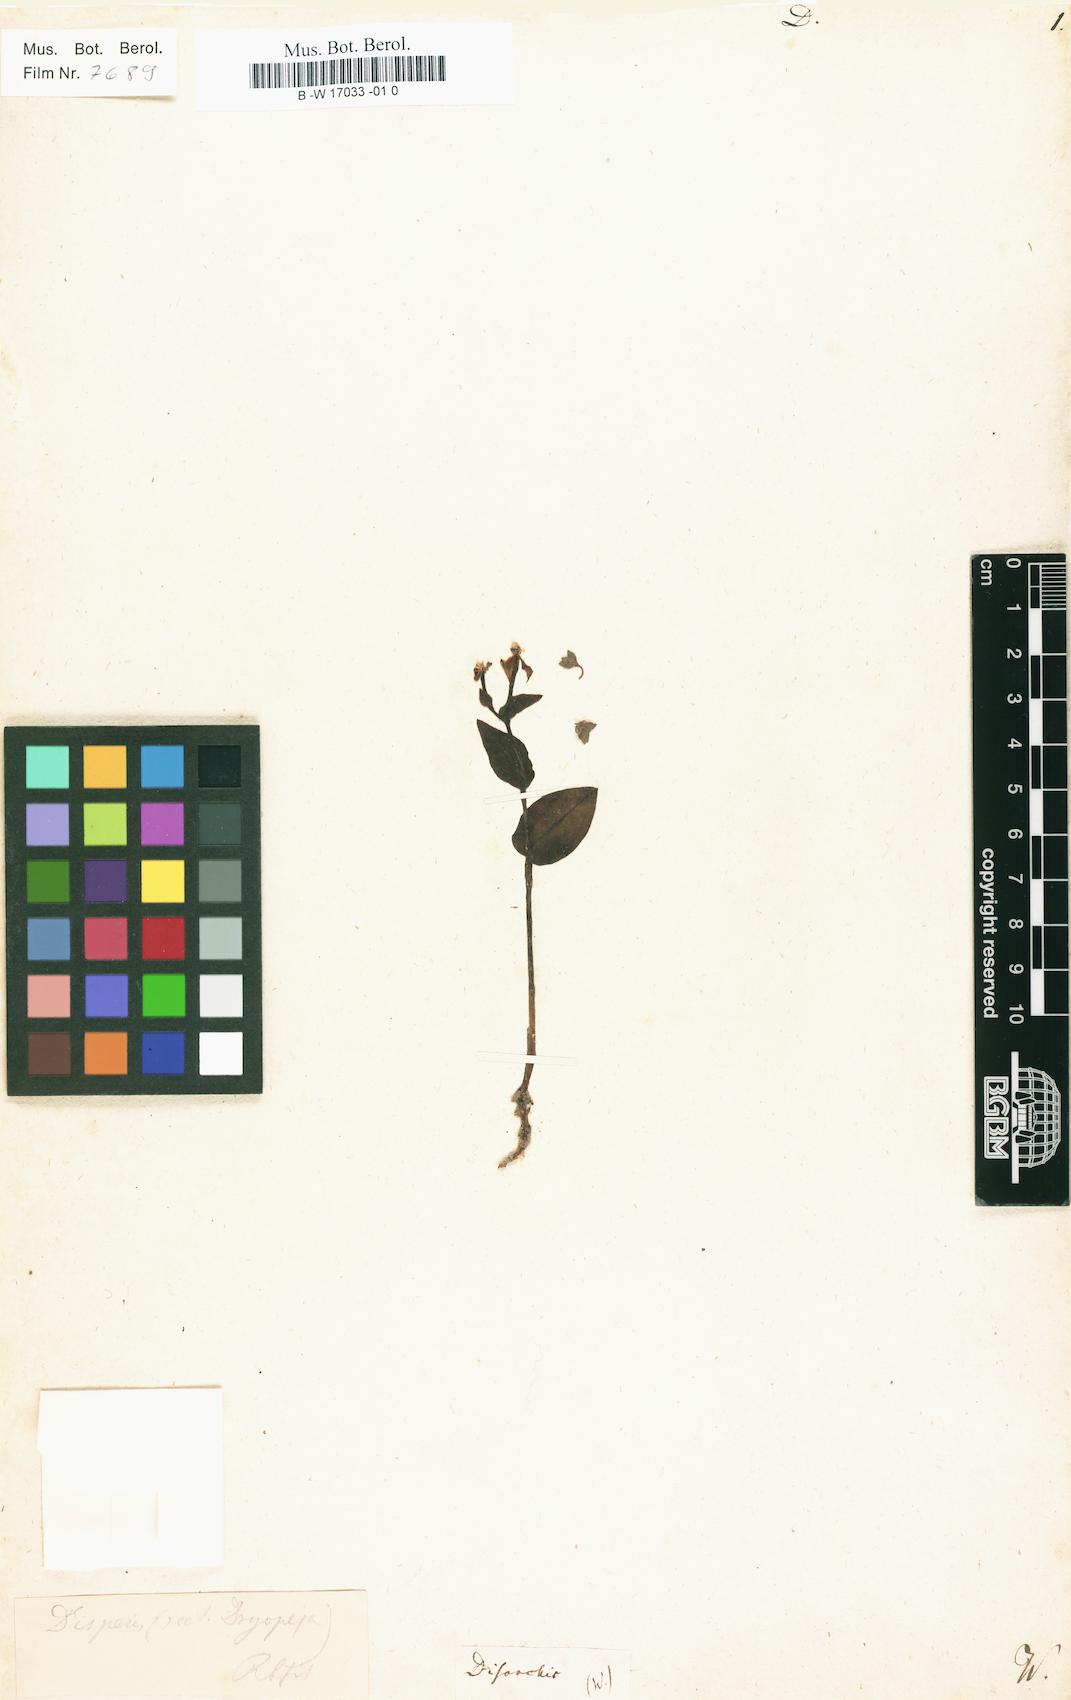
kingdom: Plantae
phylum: Tracheophyta
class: Liliopsida
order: Asparagales
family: Orchidaceae
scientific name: Orchidaceae
